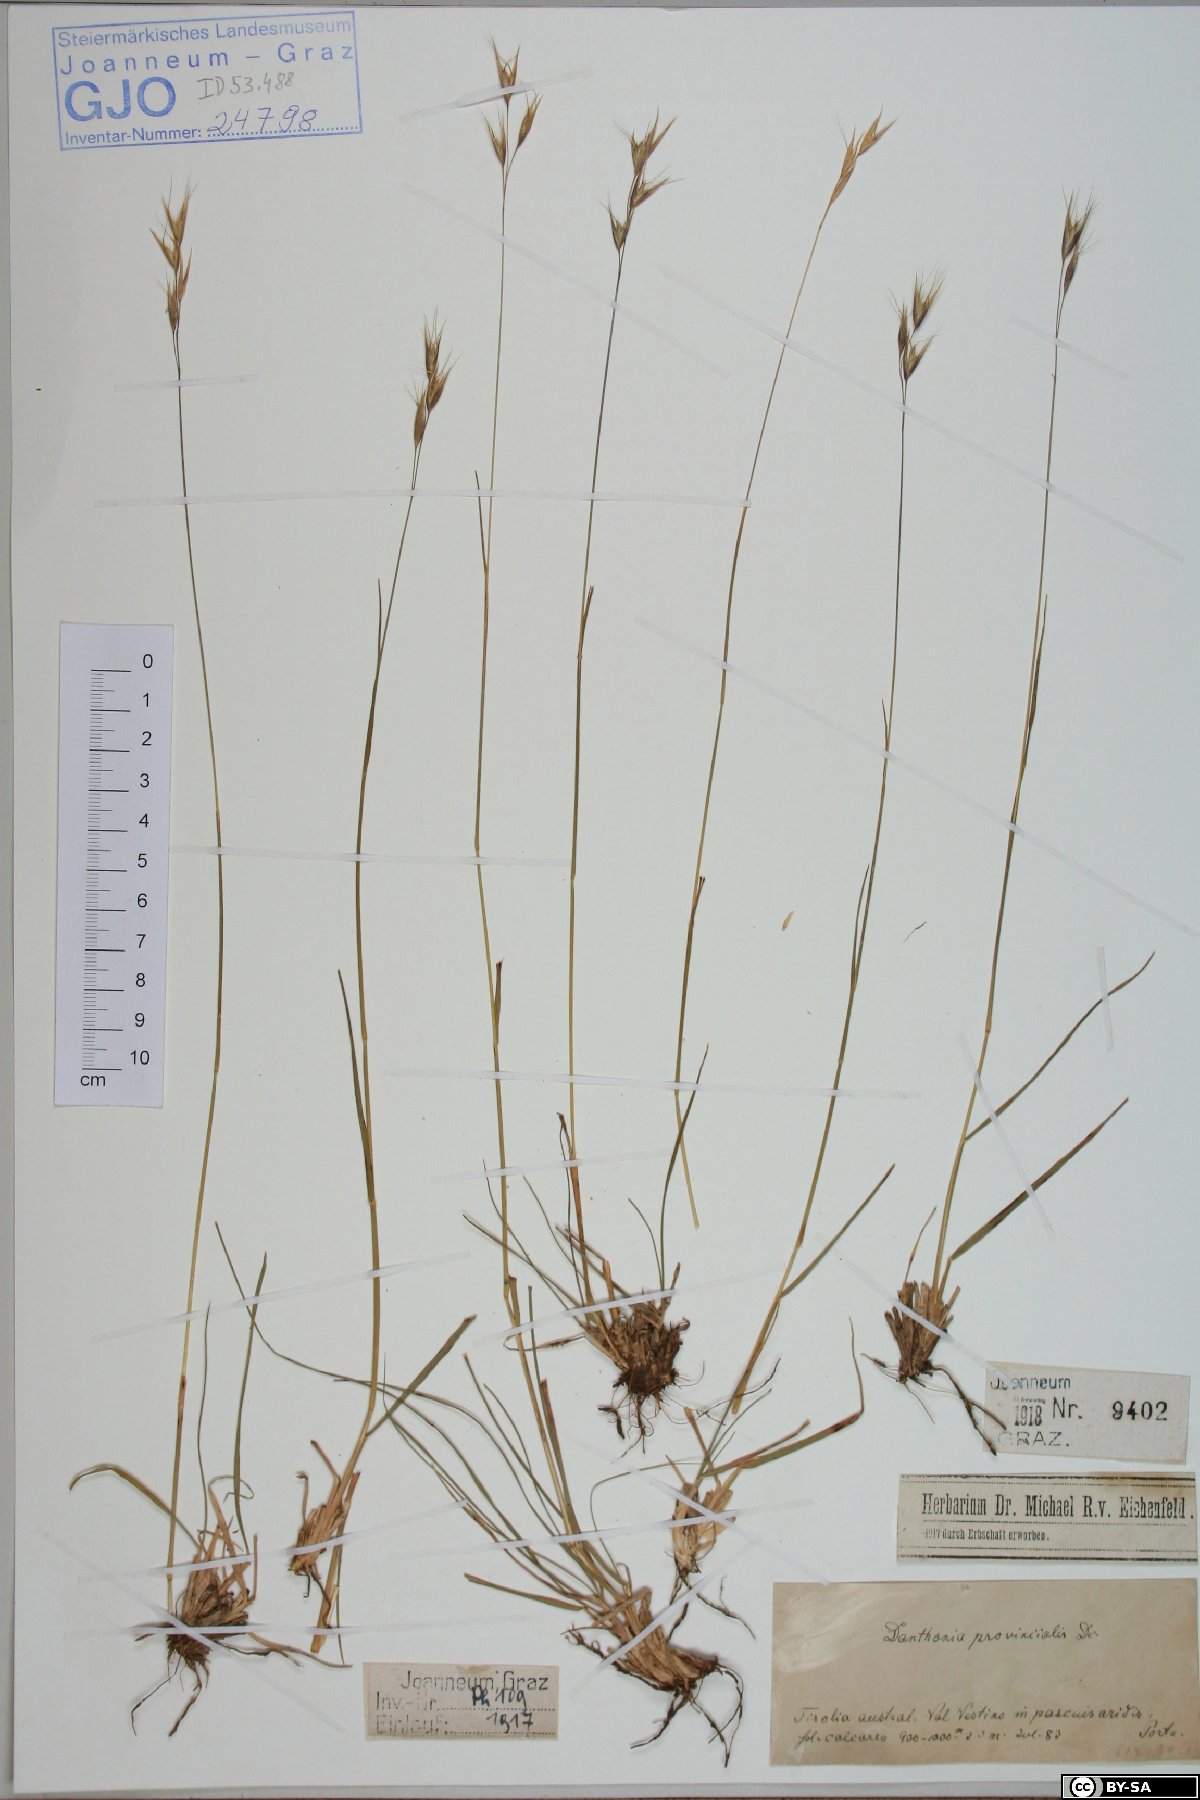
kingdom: Plantae
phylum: Tracheophyta
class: Liliopsida
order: Poales
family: Poaceae
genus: Danthonia
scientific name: Danthonia alpina
